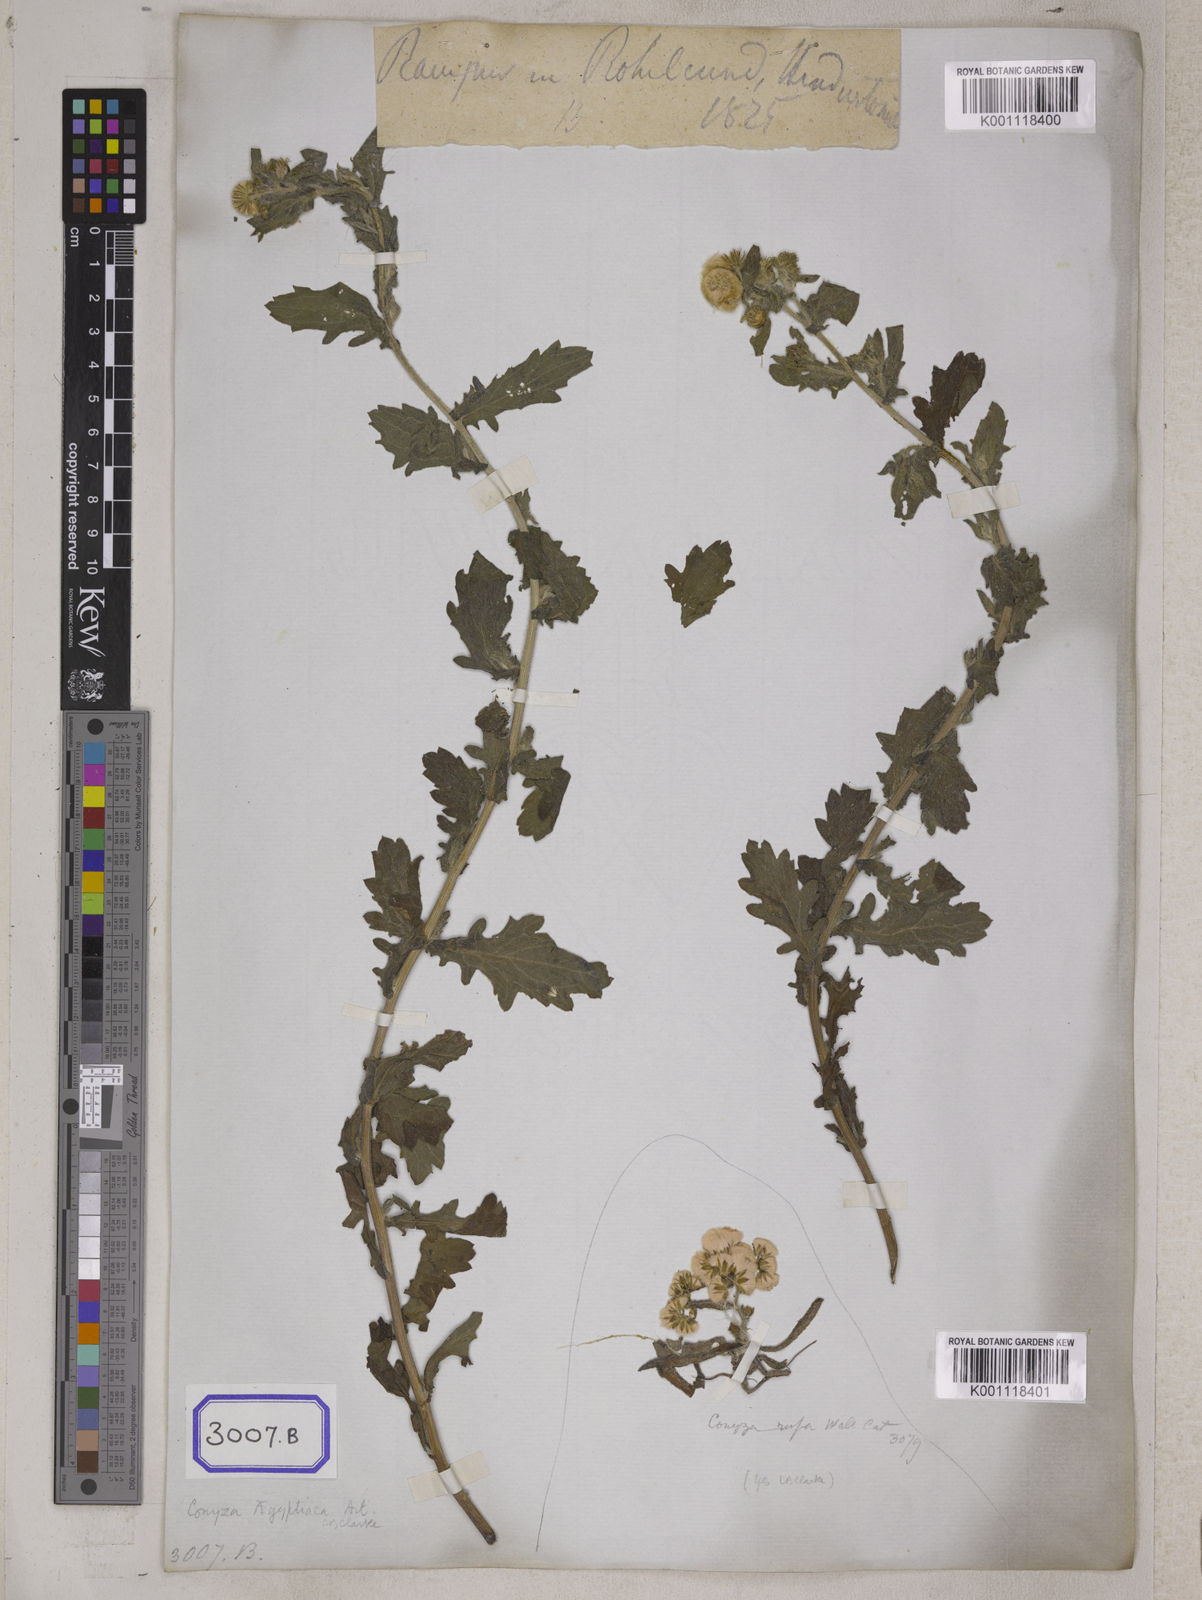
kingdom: Plantae
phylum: Tracheophyta
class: Magnoliopsida
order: Asterales
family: Asteraceae
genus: Conyza
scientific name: Conyza
